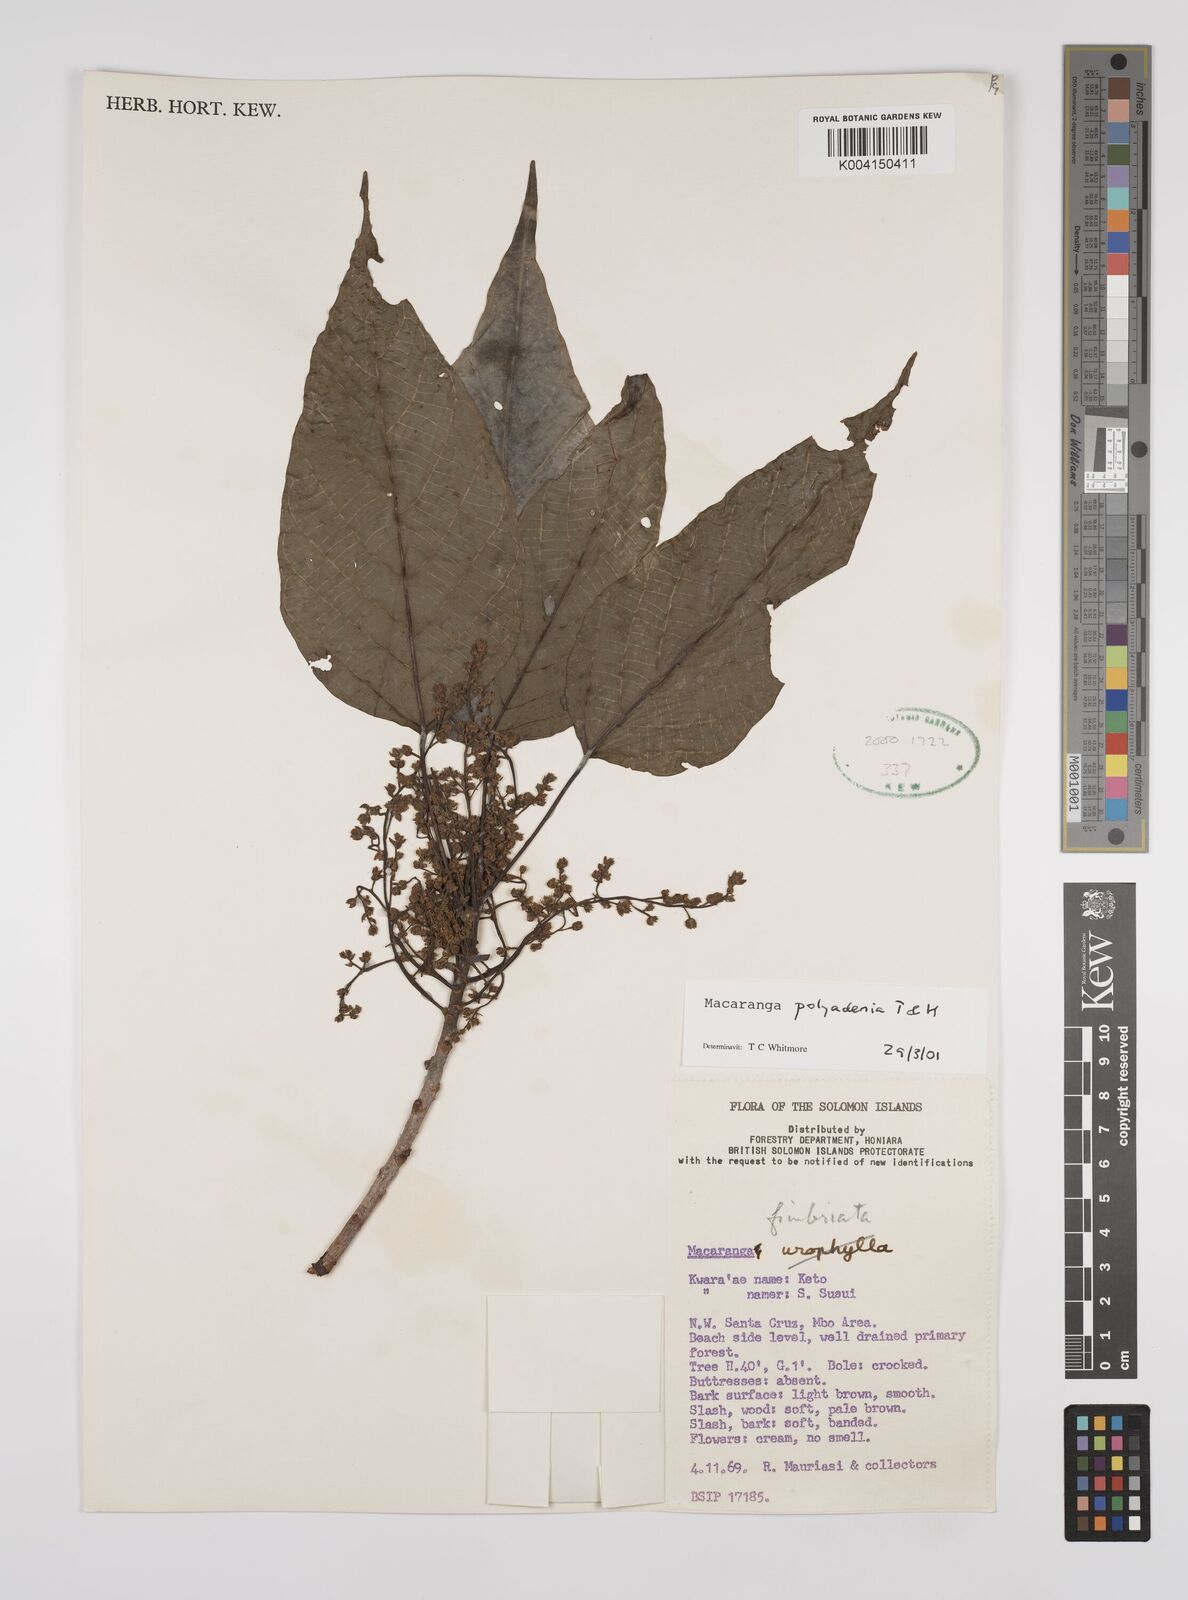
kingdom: Plantae
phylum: Tracheophyta
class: Magnoliopsida
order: Malpighiales
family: Euphorbiaceae
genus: Macaranga
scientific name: Macaranga polyadenia
